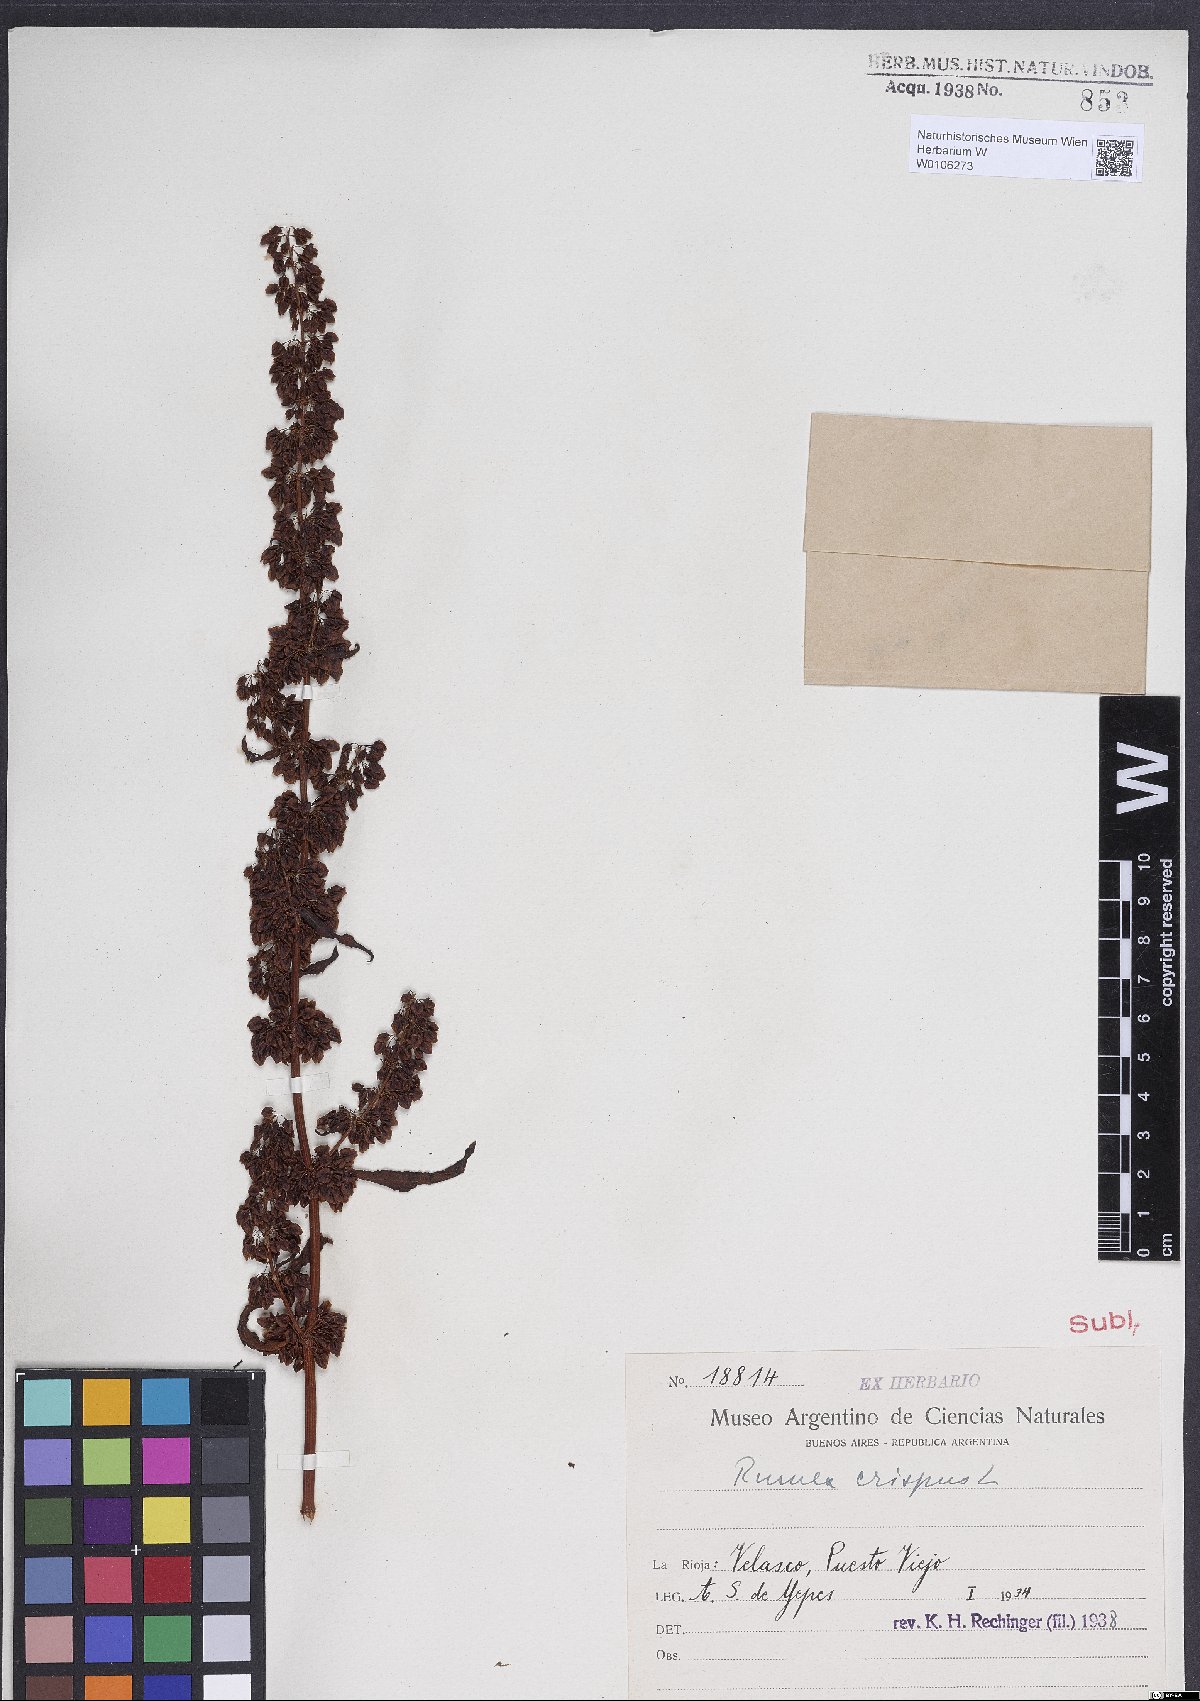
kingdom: Plantae
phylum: Tracheophyta
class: Magnoliopsida
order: Caryophyllales
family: Polygonaceae
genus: Rumex
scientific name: Rumex crispus
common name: Curled dock
